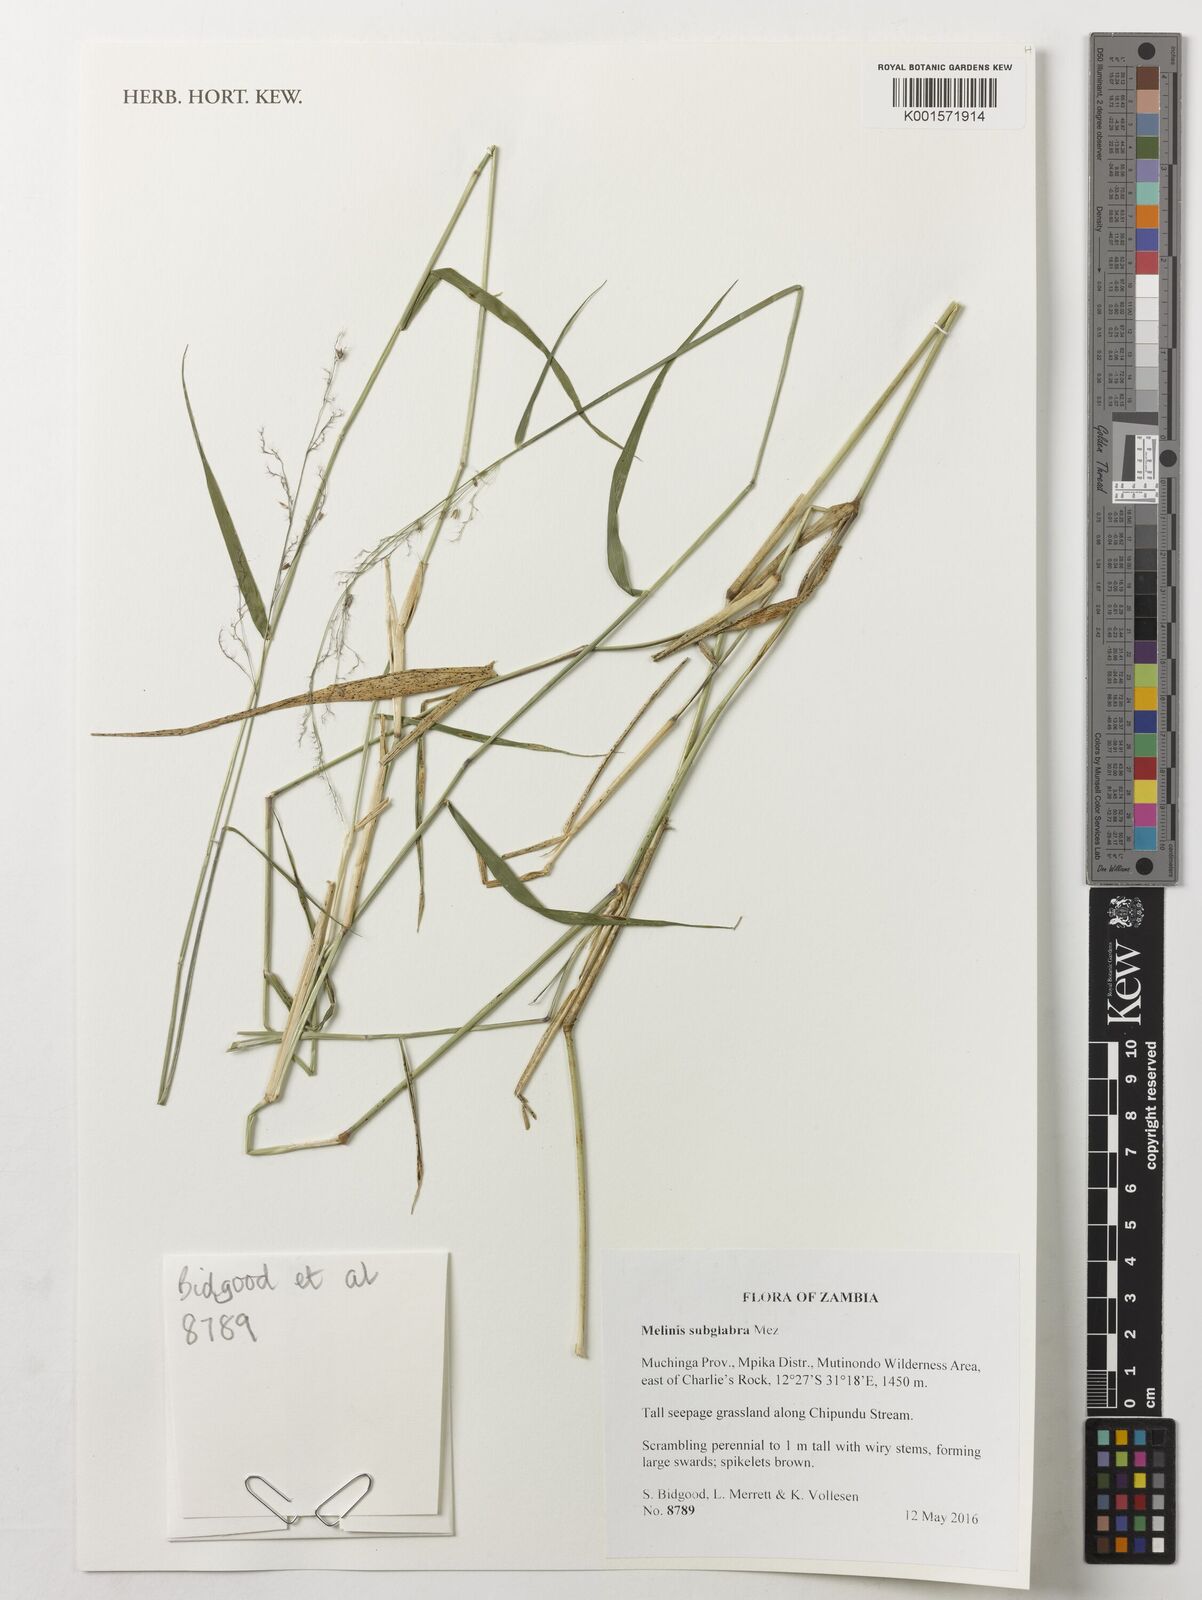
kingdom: Plantae
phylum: Tracheophyta
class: Liliopsida
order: Poales
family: Poaceae
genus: Melinis
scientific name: Melinis subglabra
